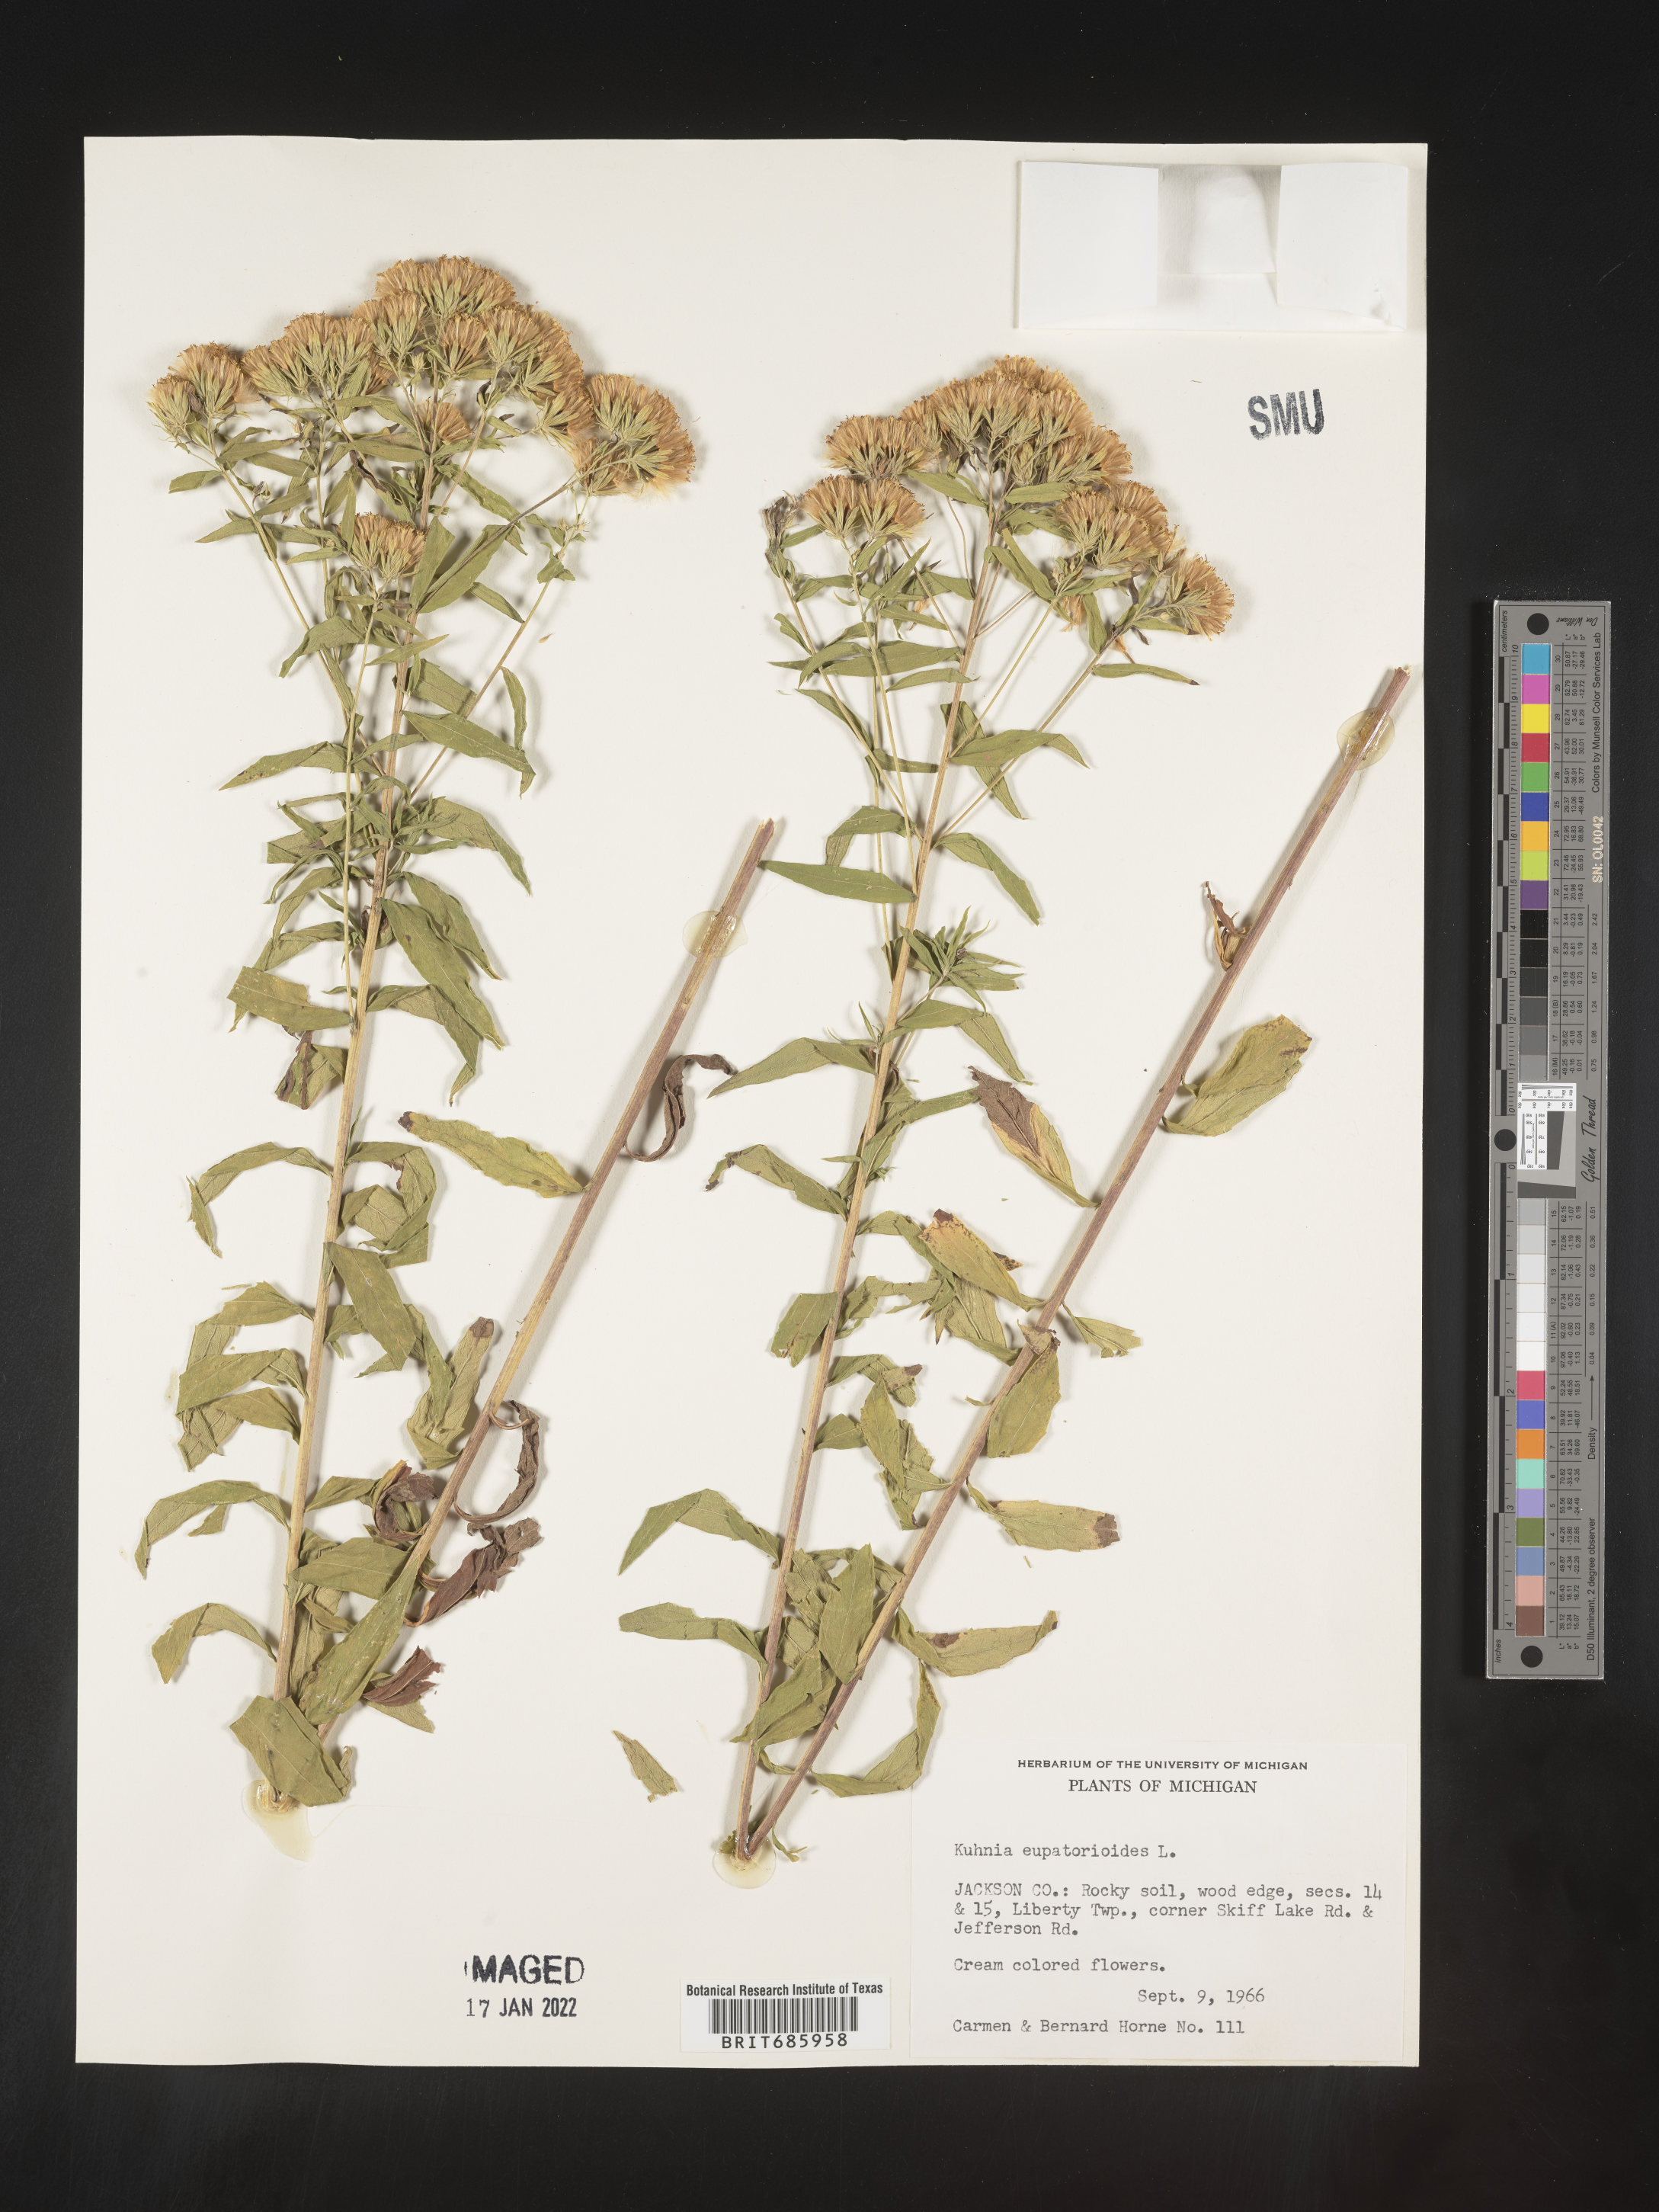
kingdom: Plantae
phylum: Tracheophyta
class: Magnoliopsida
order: Asterales
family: Asteraceae
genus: Brickellia
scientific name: Brickellia eupatorioides
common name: False boneset
